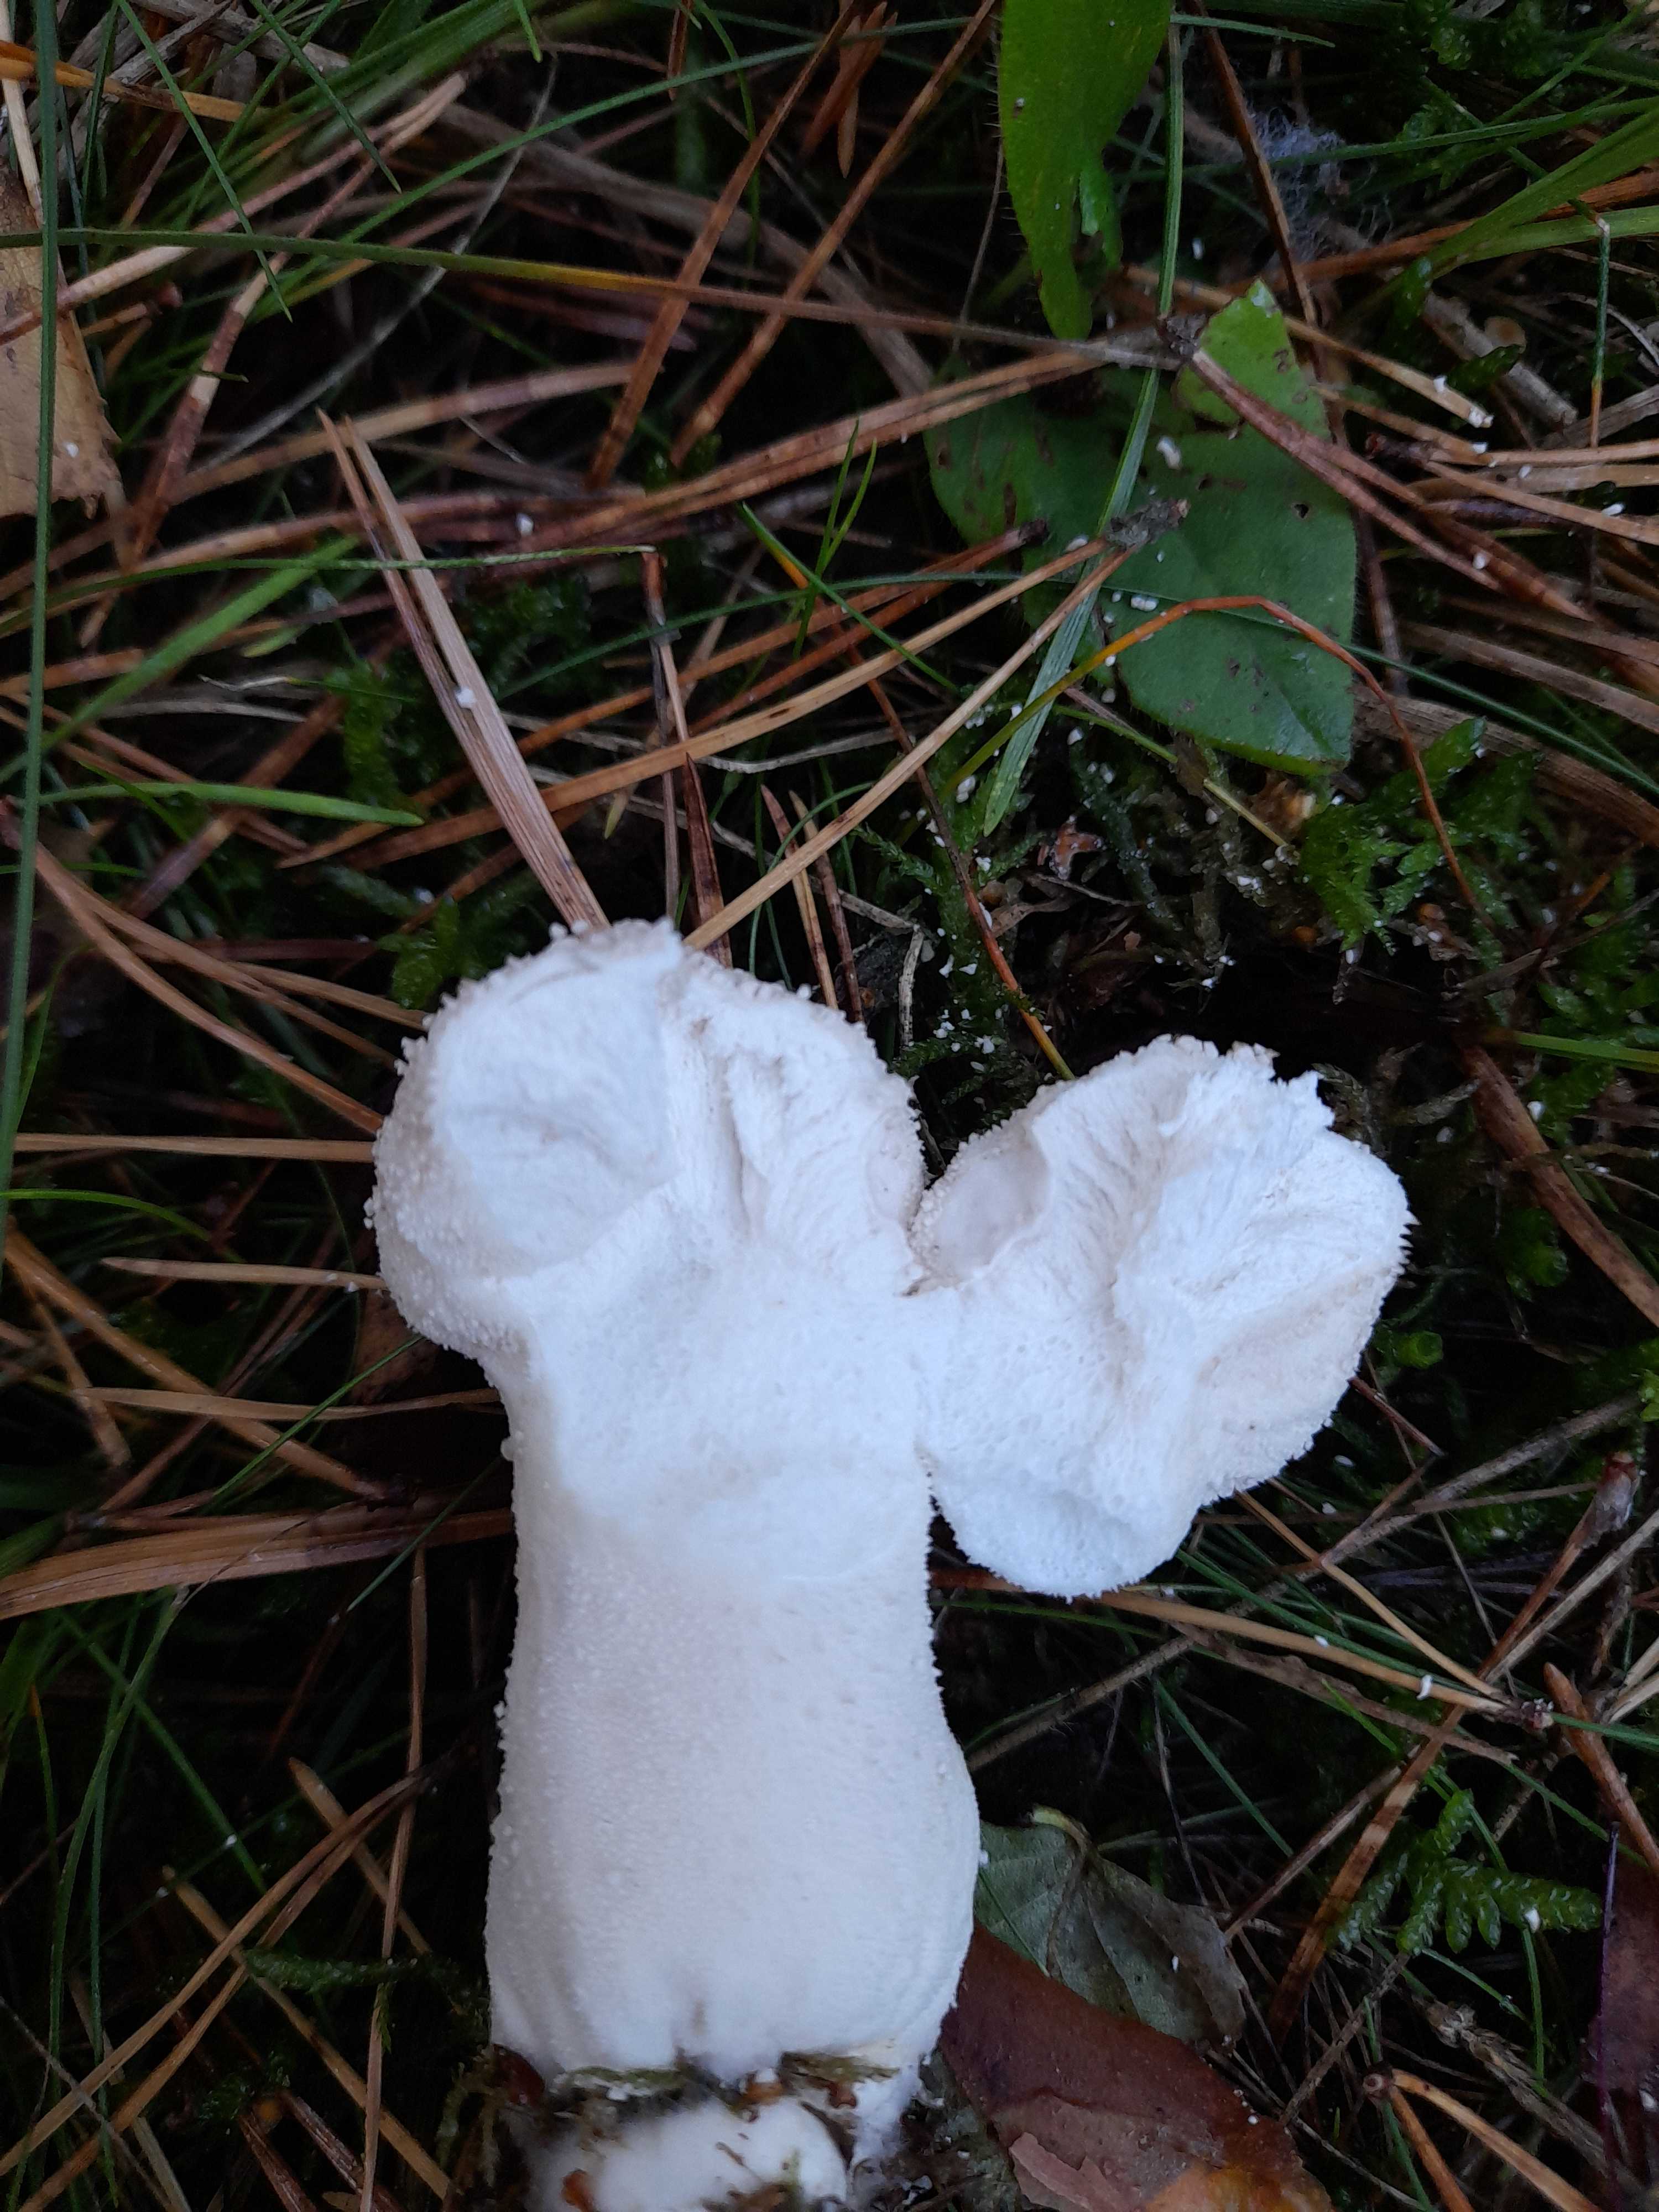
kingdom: Fungi
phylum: Basidiomycota
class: Agaricomycetes
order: Agaricales
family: Lycoperdaceae
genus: Lycoperdon
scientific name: Lycoperdon perlatum
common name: krystal-støvbold
